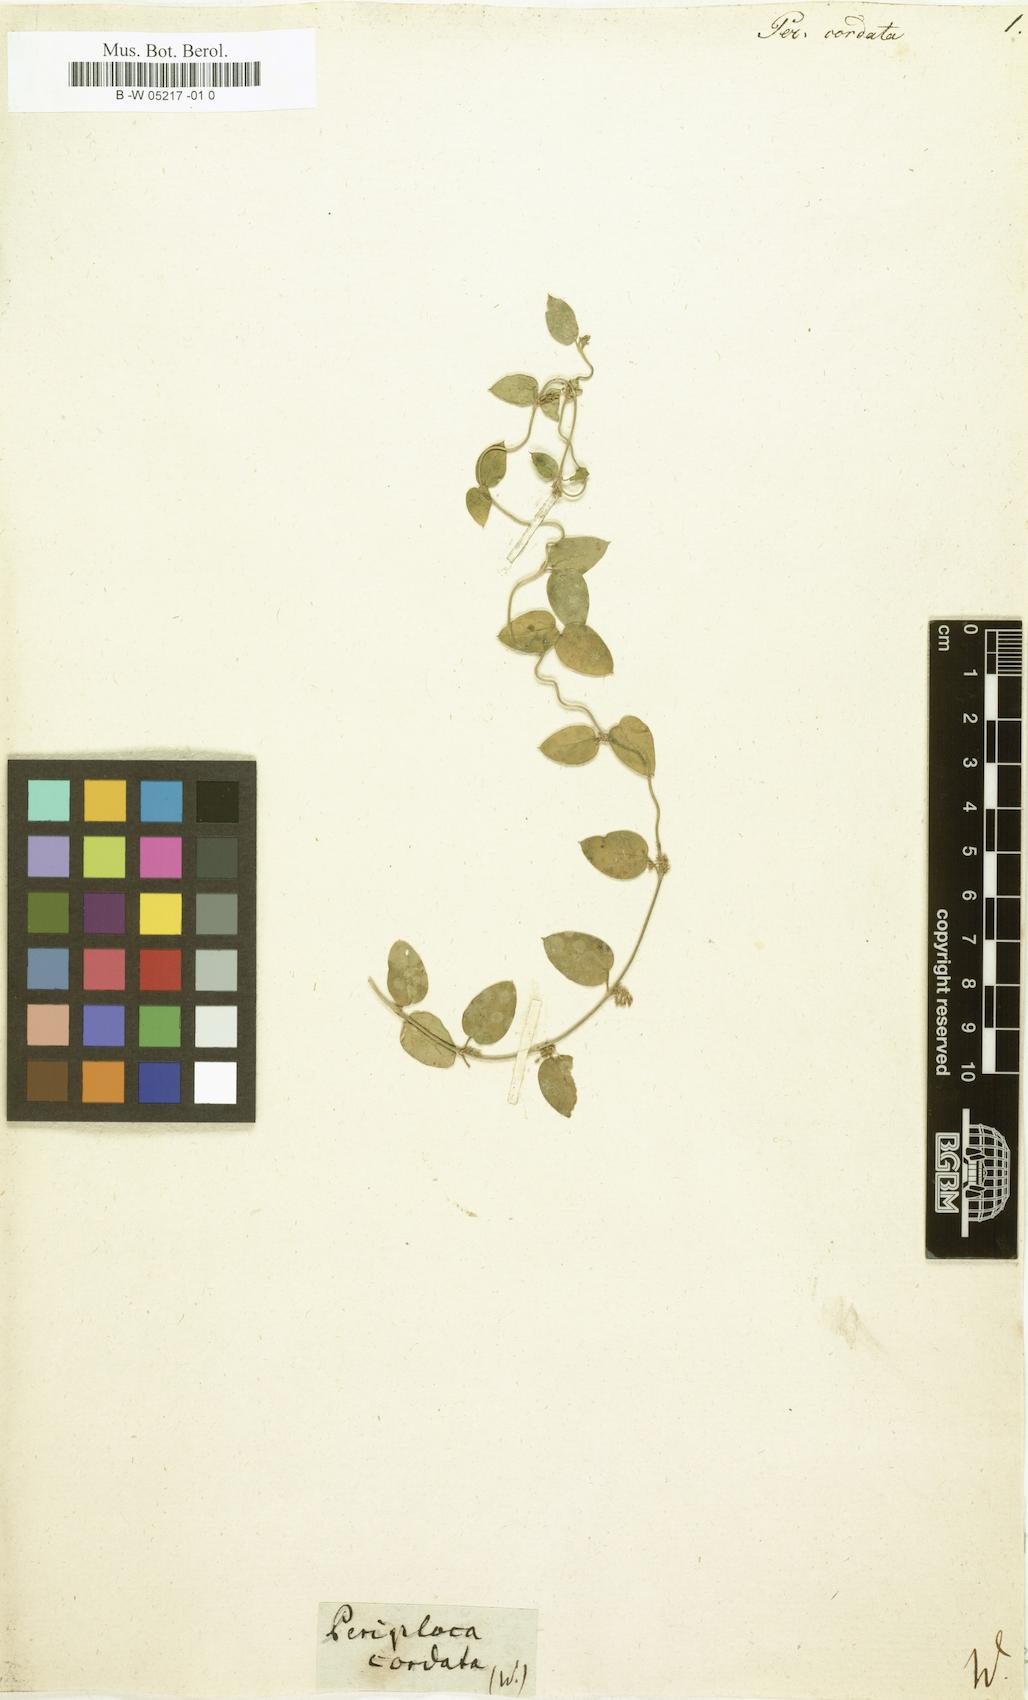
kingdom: Plantae
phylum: Tracheophyta
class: Magnoliopsida
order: Gentianales
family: Apocynaceae
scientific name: Apocynaceae
